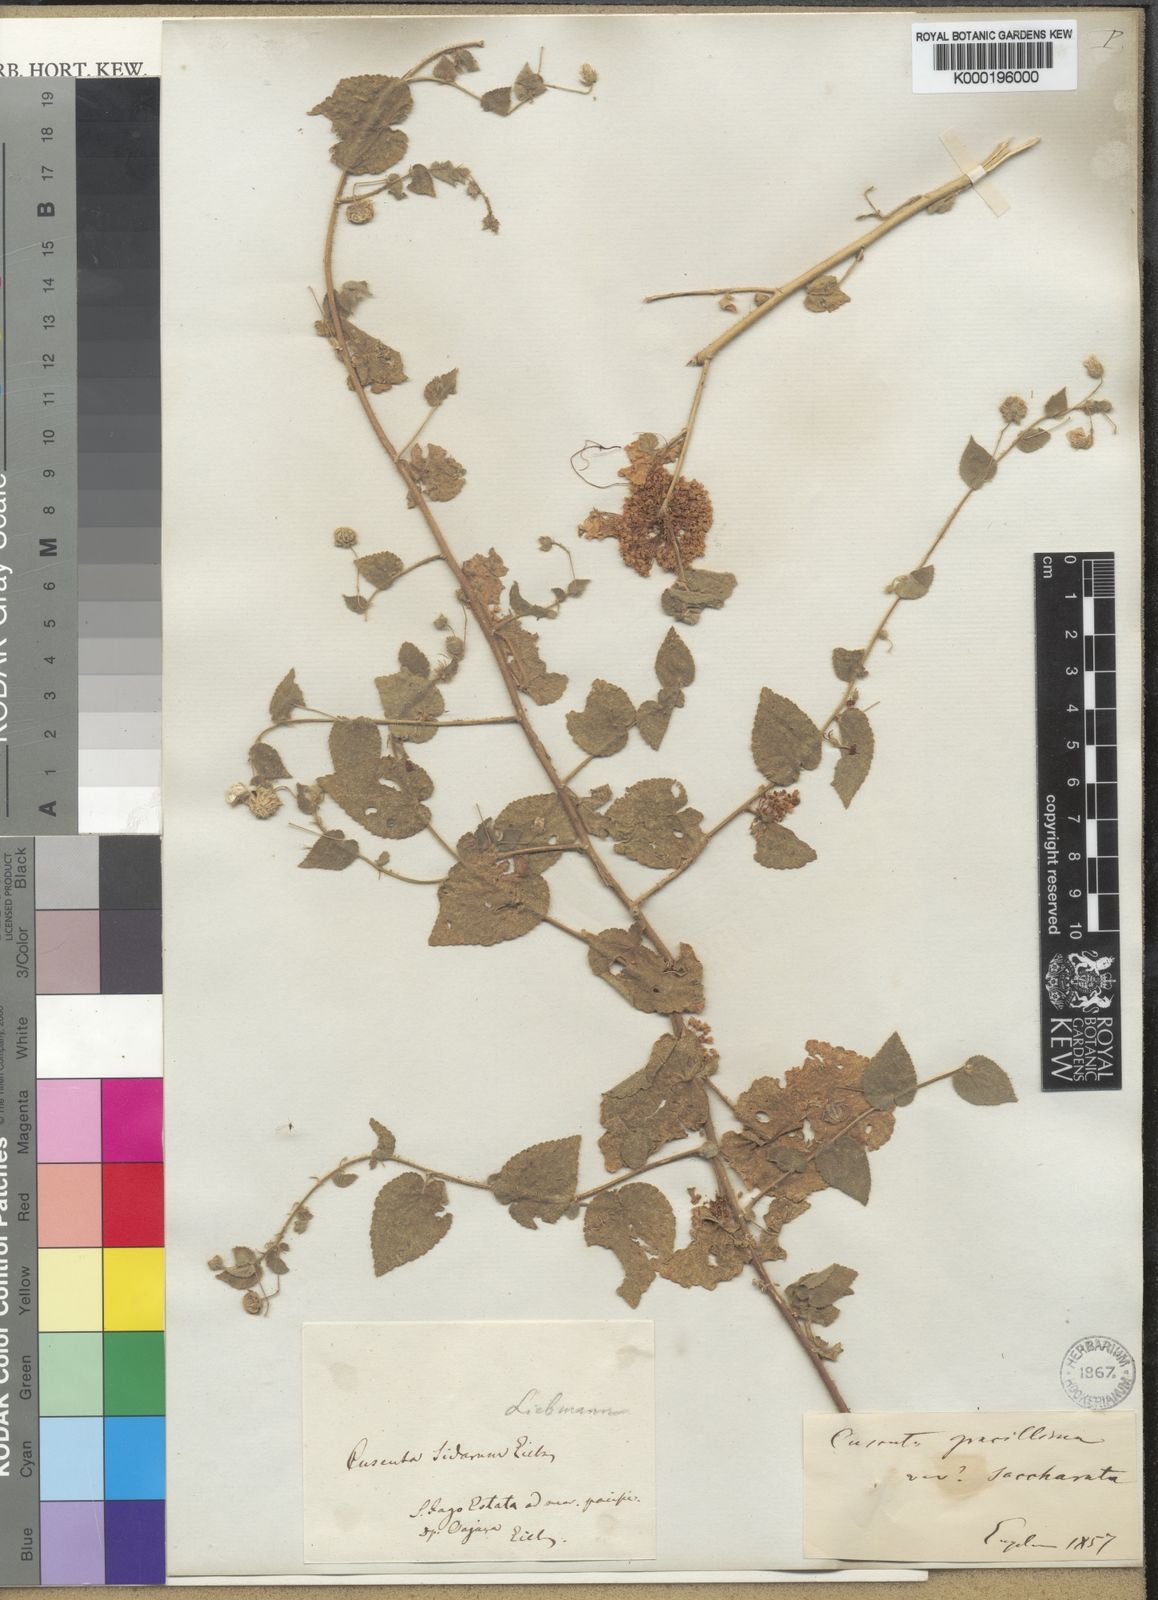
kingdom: Plantae
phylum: Tracheophyta
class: Magnoliopsida
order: Solanales
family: Convolvulaceae
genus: Cuscuta
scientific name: Cuscuta
